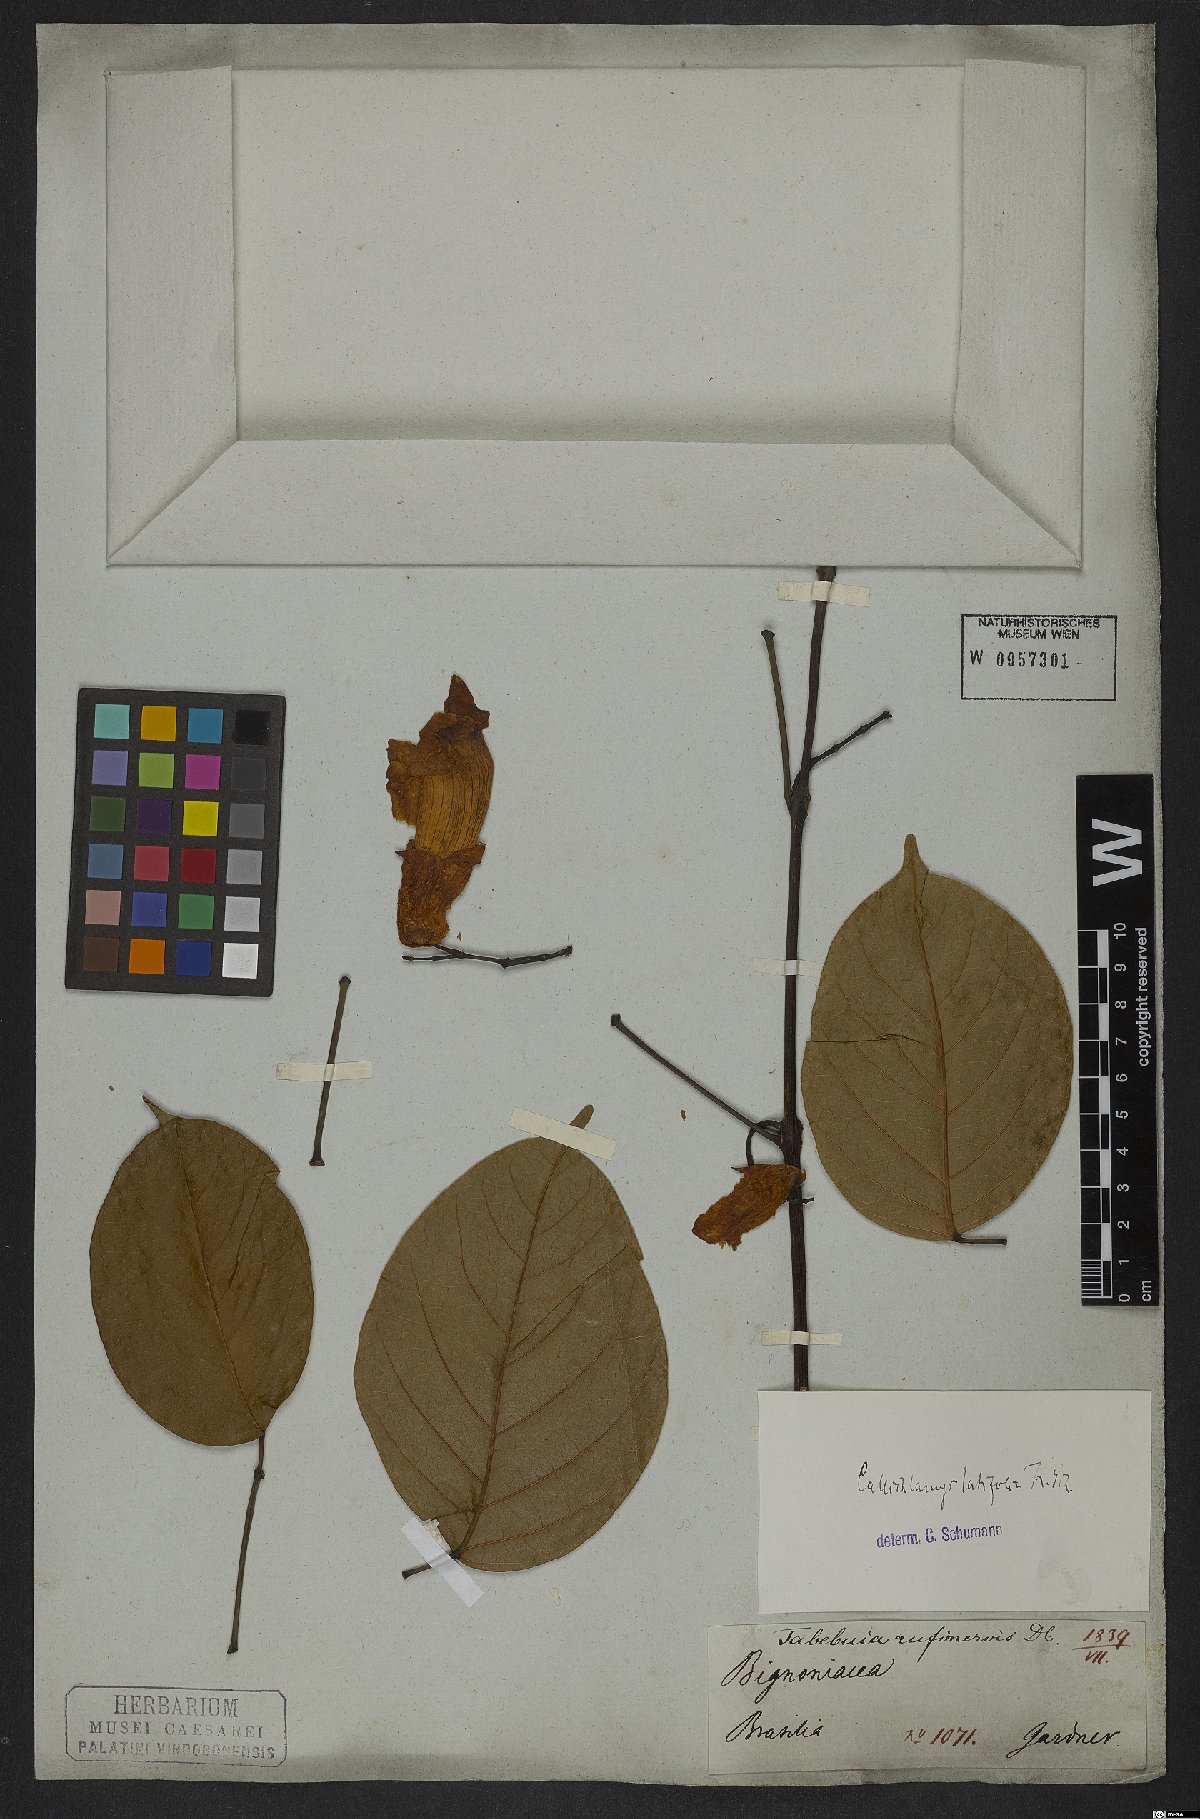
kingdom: Plantae
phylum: Tracheophyta
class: Magnoliopsida
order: Lamiales
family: Bignoniaceae
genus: Callichlamys
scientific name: Callichlamys latifolia
